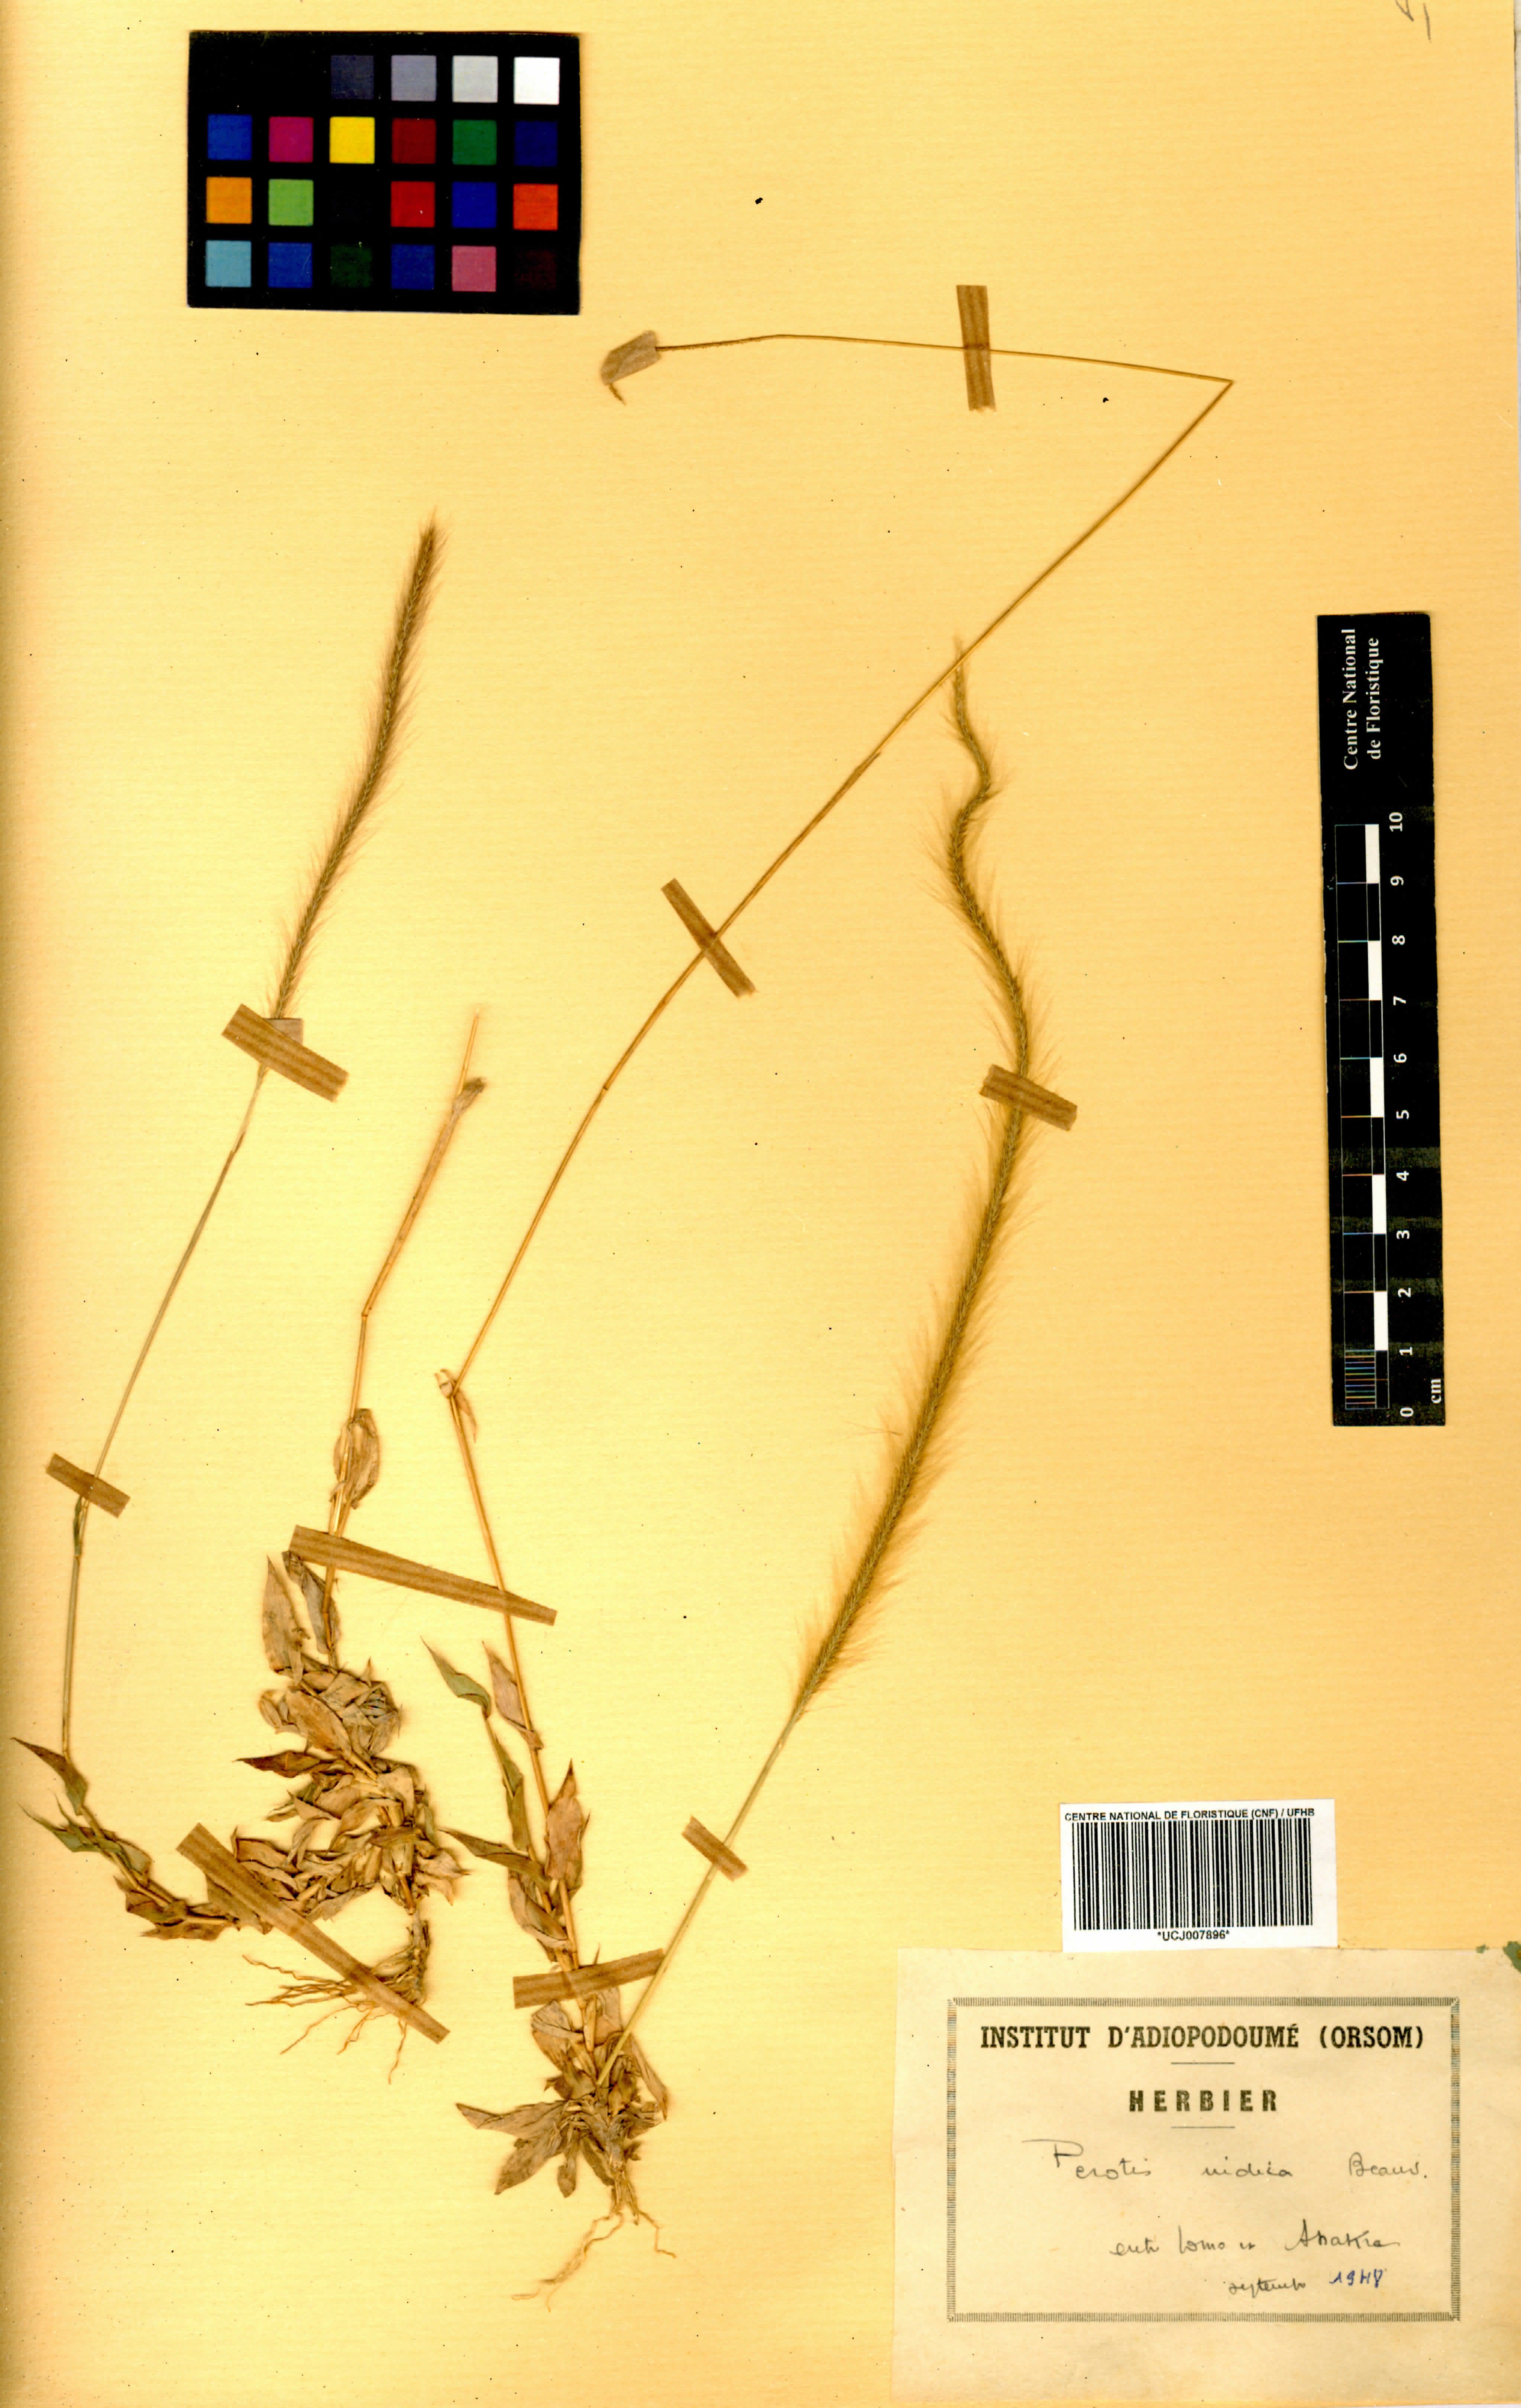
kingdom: Plantae
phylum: Tracheophyta
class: Liliopsida
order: Poales
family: Poaceae
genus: Perotis
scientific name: Perotis indica
